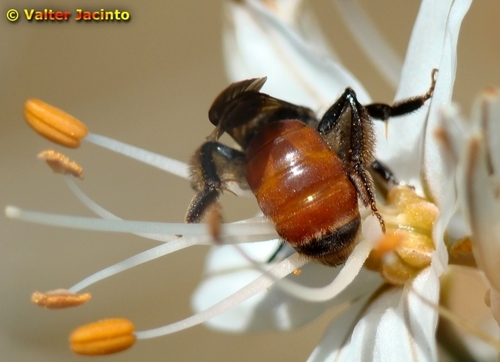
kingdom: Animalia
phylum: Arthropoda
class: Insecta
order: Hymenoptera
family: Andrenidae
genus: Andrena
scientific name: Andrena sardoa
